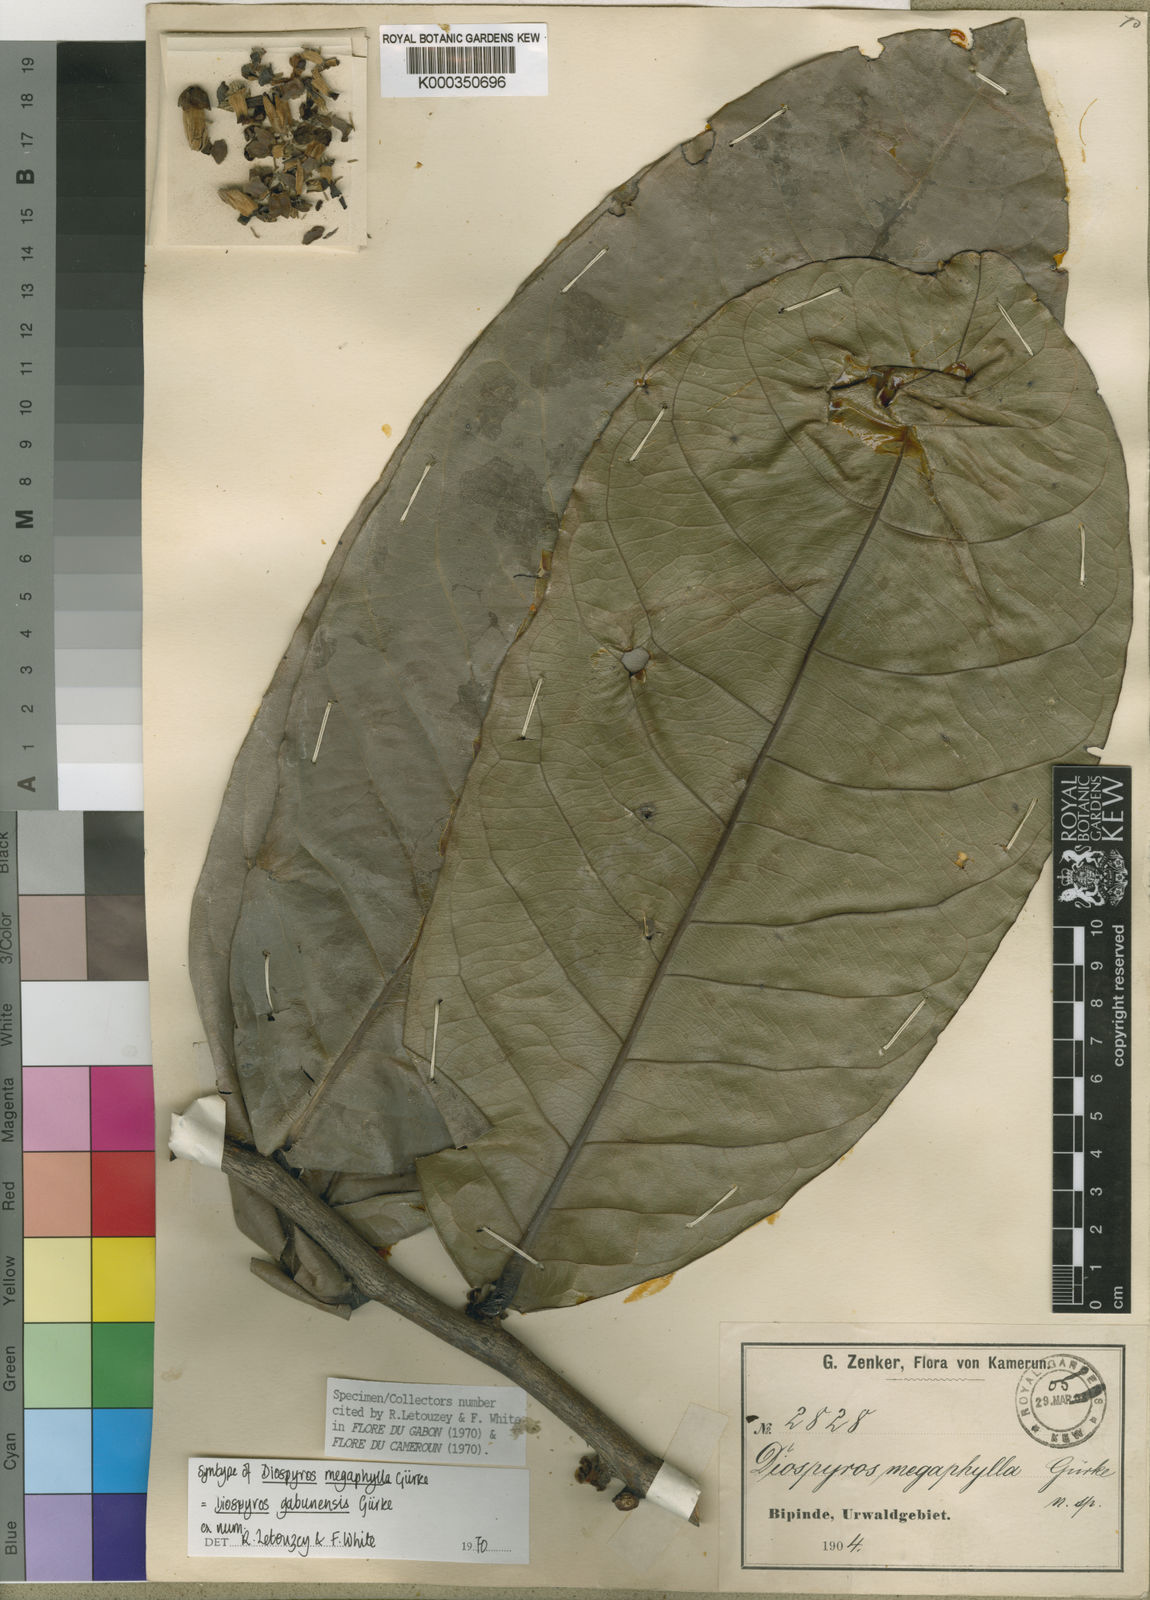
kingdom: Plantae
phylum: Tracheophyta
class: Magnoliopsida
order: Ericales
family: Ebenaceae
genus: Diospyros
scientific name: Diospyros
